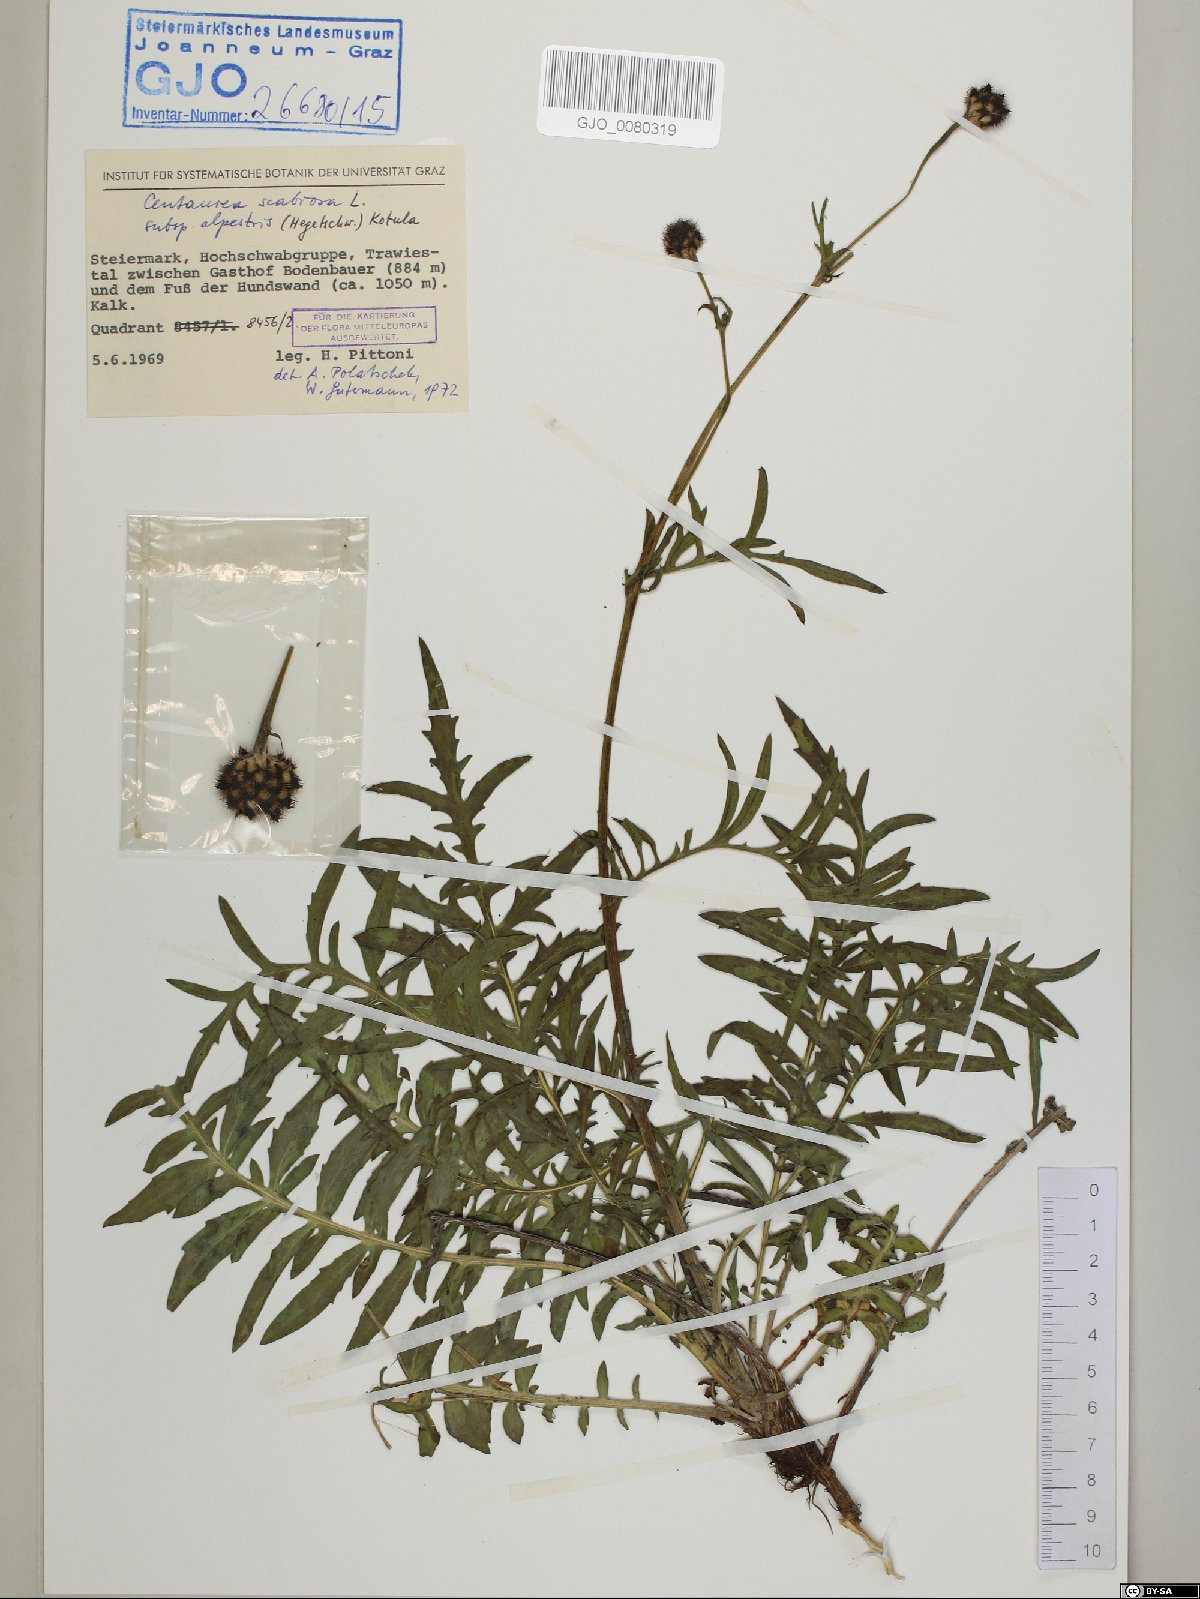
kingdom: Plantae
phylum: Tracheophyta
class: Magnoliopsida
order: Asterales
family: Asteraceae
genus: Centaurea
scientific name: Centaurea scabiosa
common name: Greater knapweed
